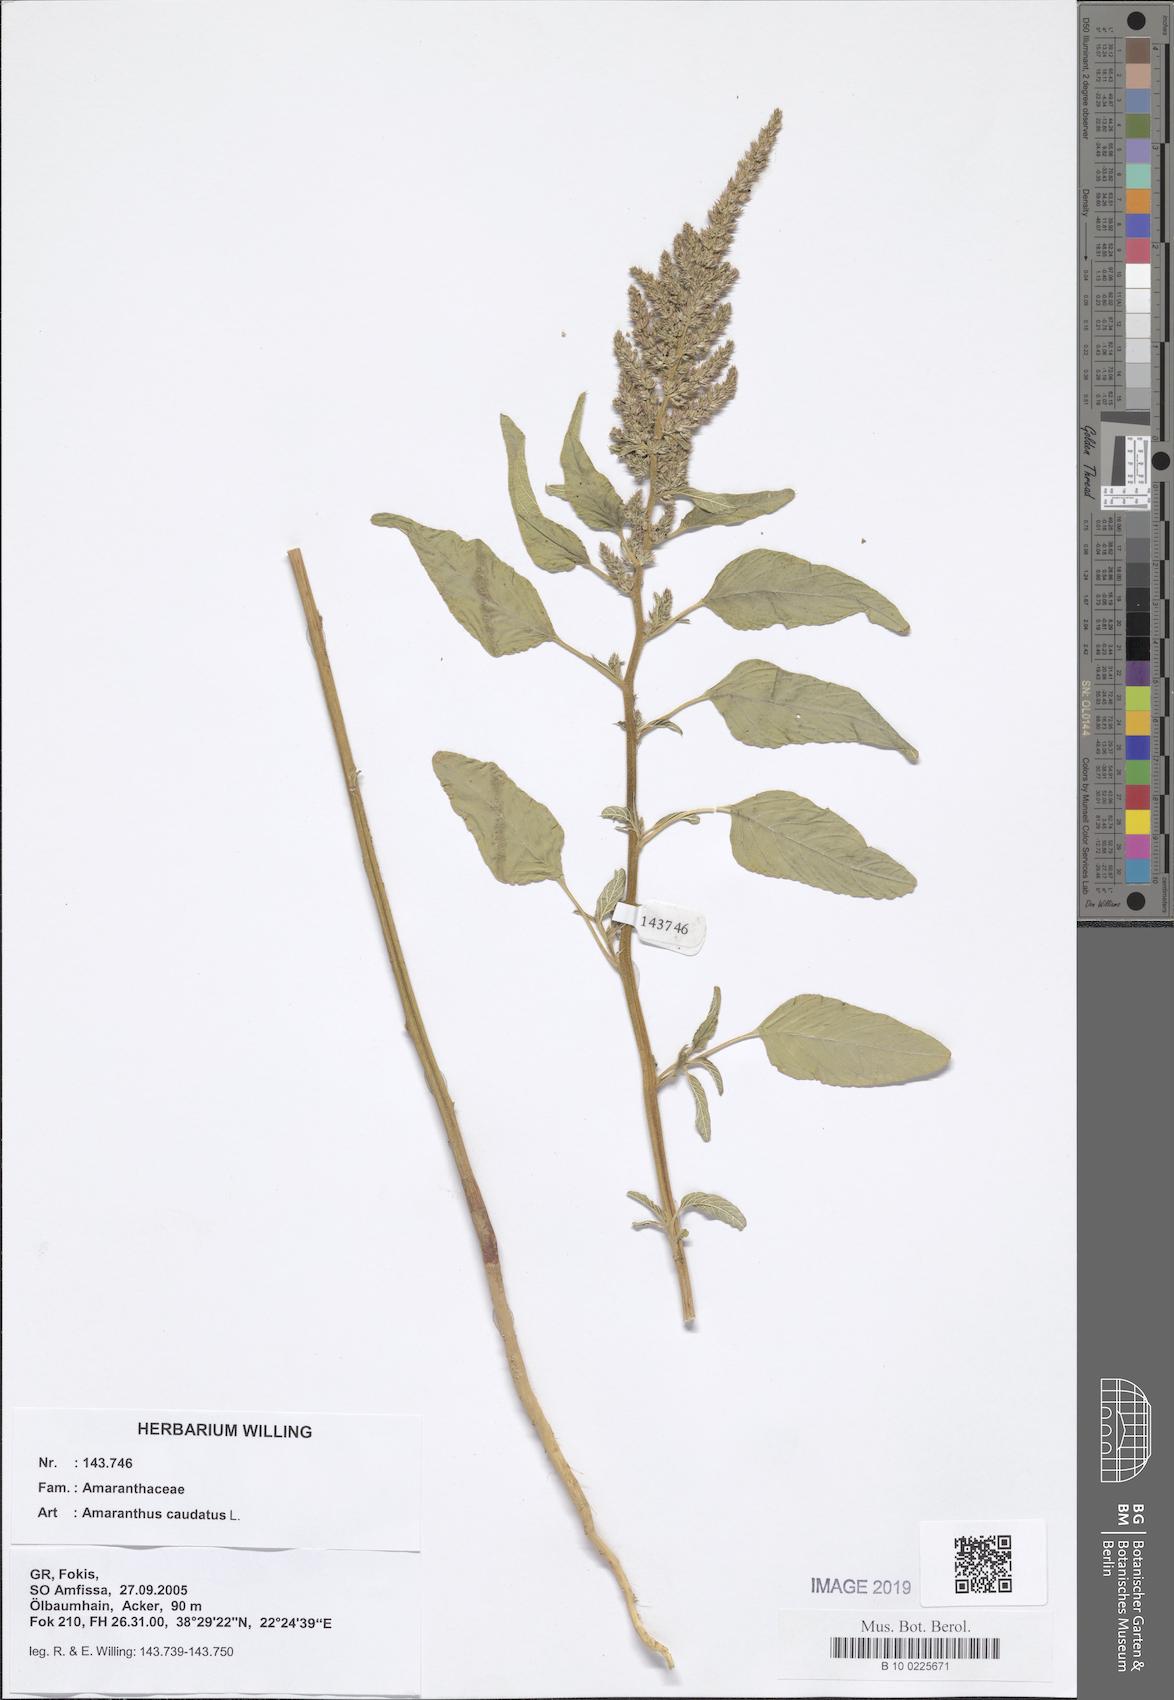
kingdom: Plantae
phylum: Tracheophyta
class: Magnoliopsida
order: Caryophyllales
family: Amaranthaceae
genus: Amaranthus
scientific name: Amaranthus caudatus
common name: Love-lies-bleeding
